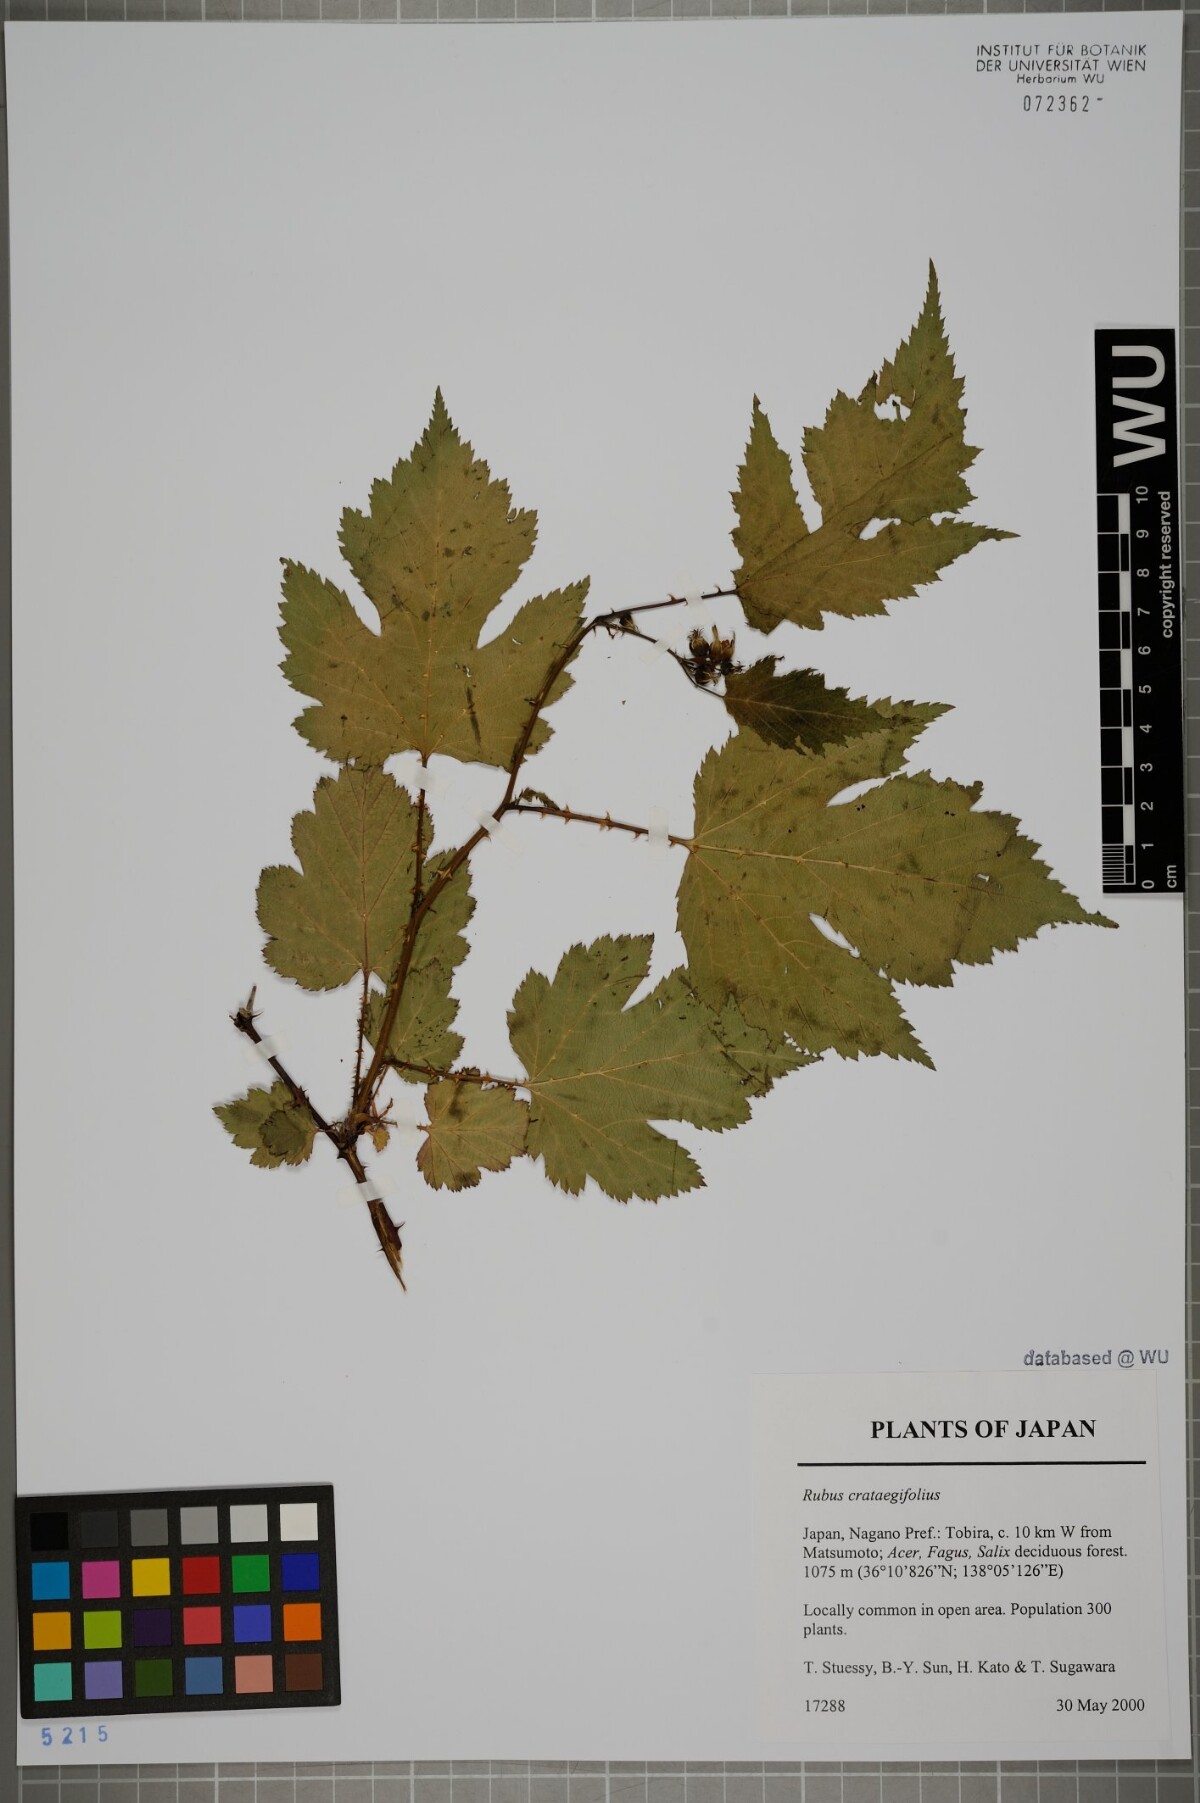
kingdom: Plantae
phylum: Tracheophyta
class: Magnoliopsida
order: Rosales
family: Rosaceae
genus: Rubus
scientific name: Rubus crataegifolius
